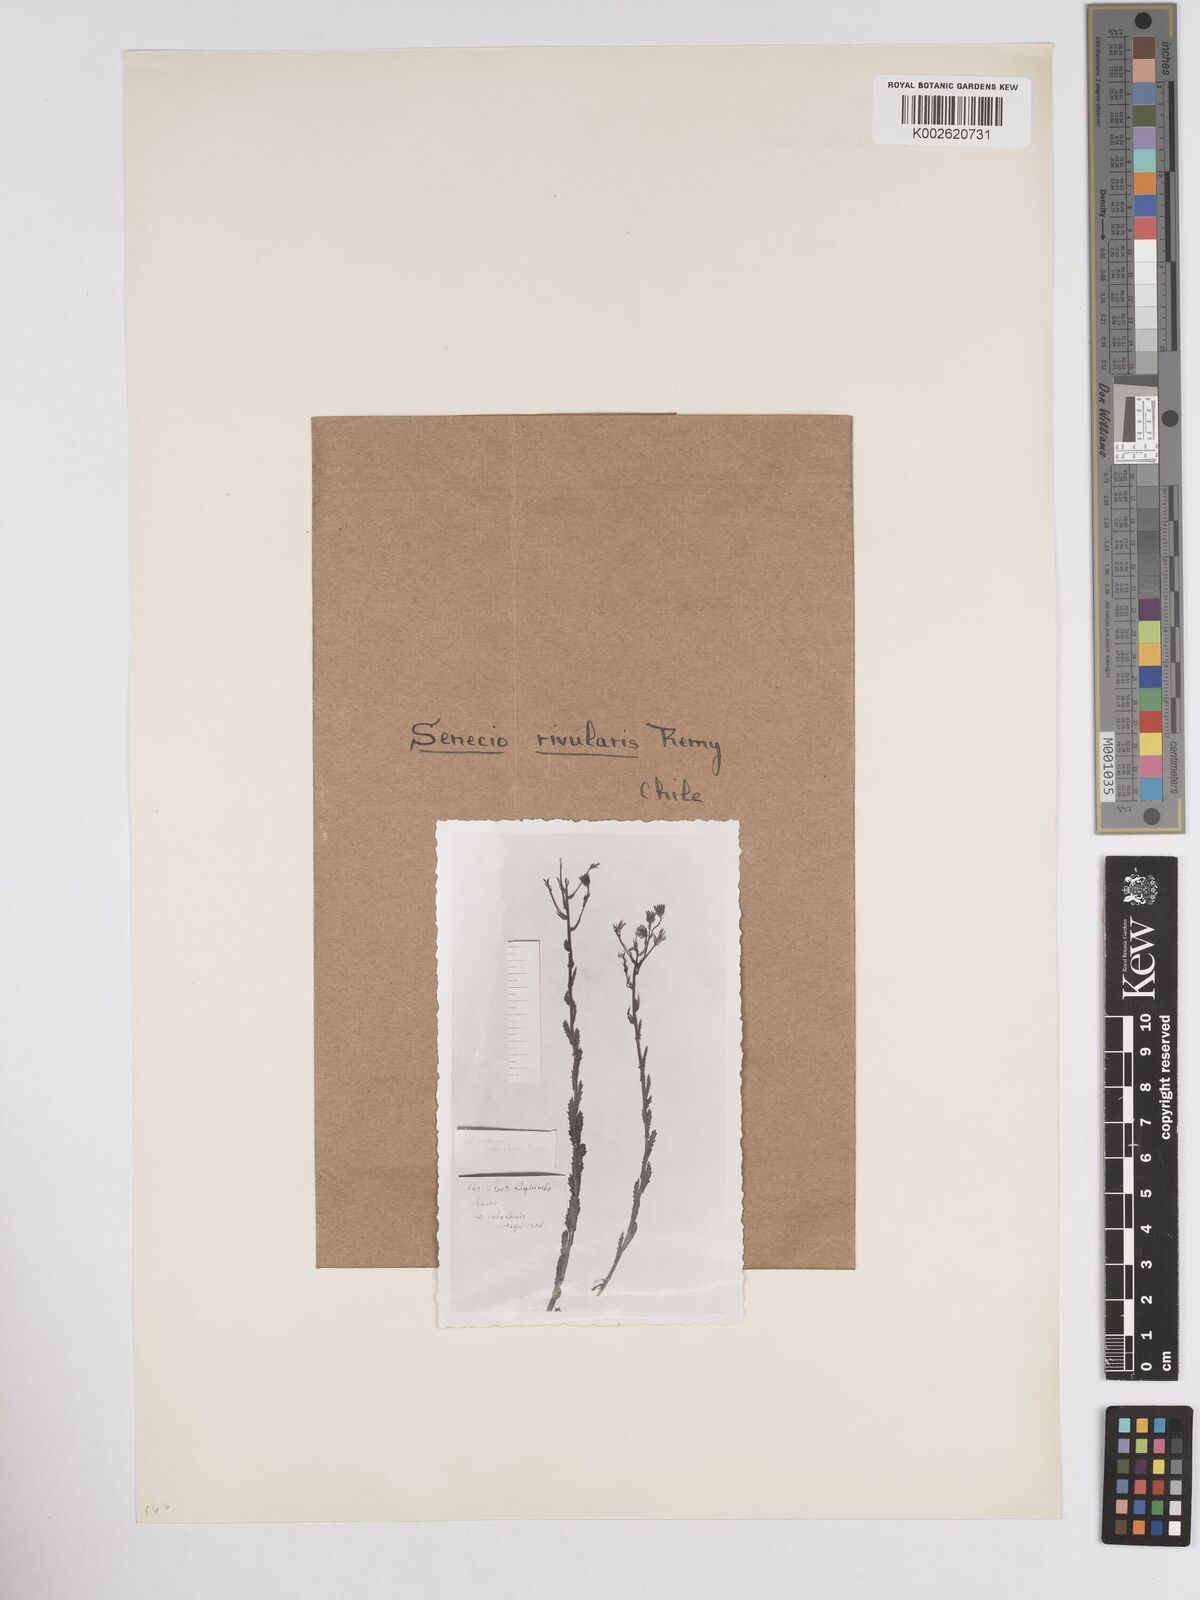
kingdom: Plantae
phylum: Tracheophyta
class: Magnoliopsida
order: Asterales
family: Asteraceae
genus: Senecio
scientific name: Senecio peripotamus
